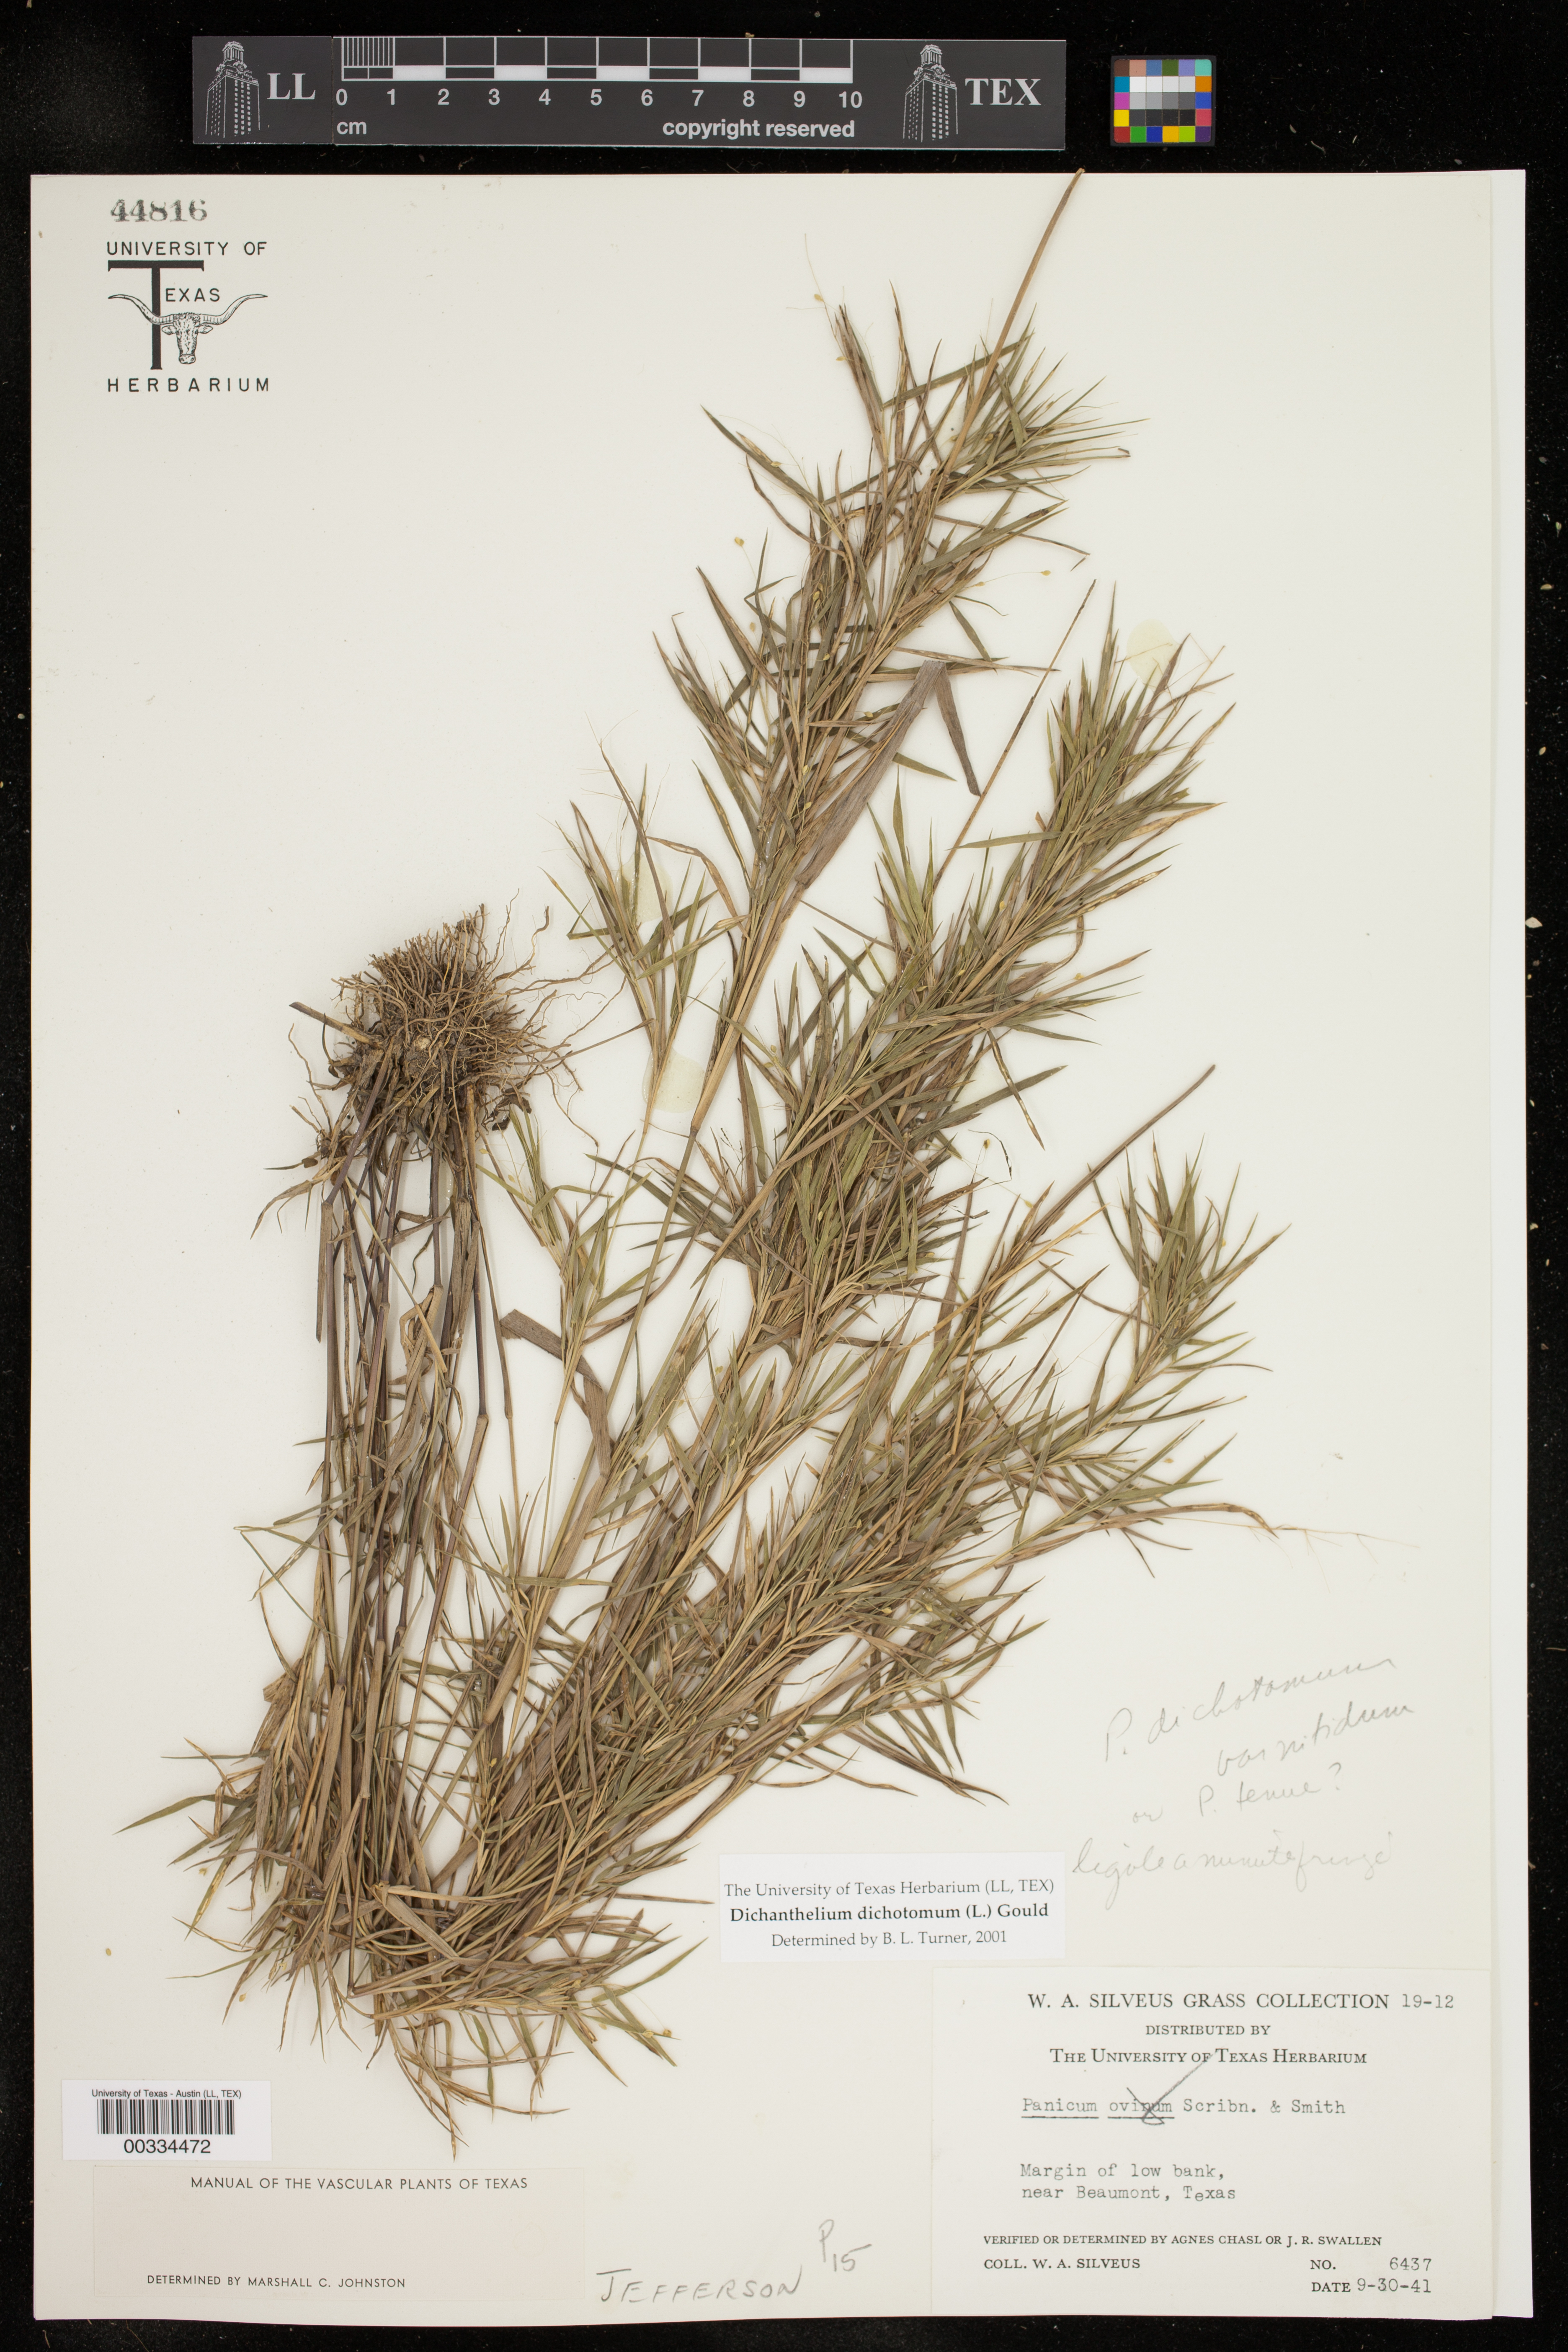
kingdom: Plantae
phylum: Tracheophyta
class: Liliopsida
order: Poales
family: Poaceae
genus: Dichanthelium
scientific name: Dichanthelium dichotomum
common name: Cypress panicgrass
